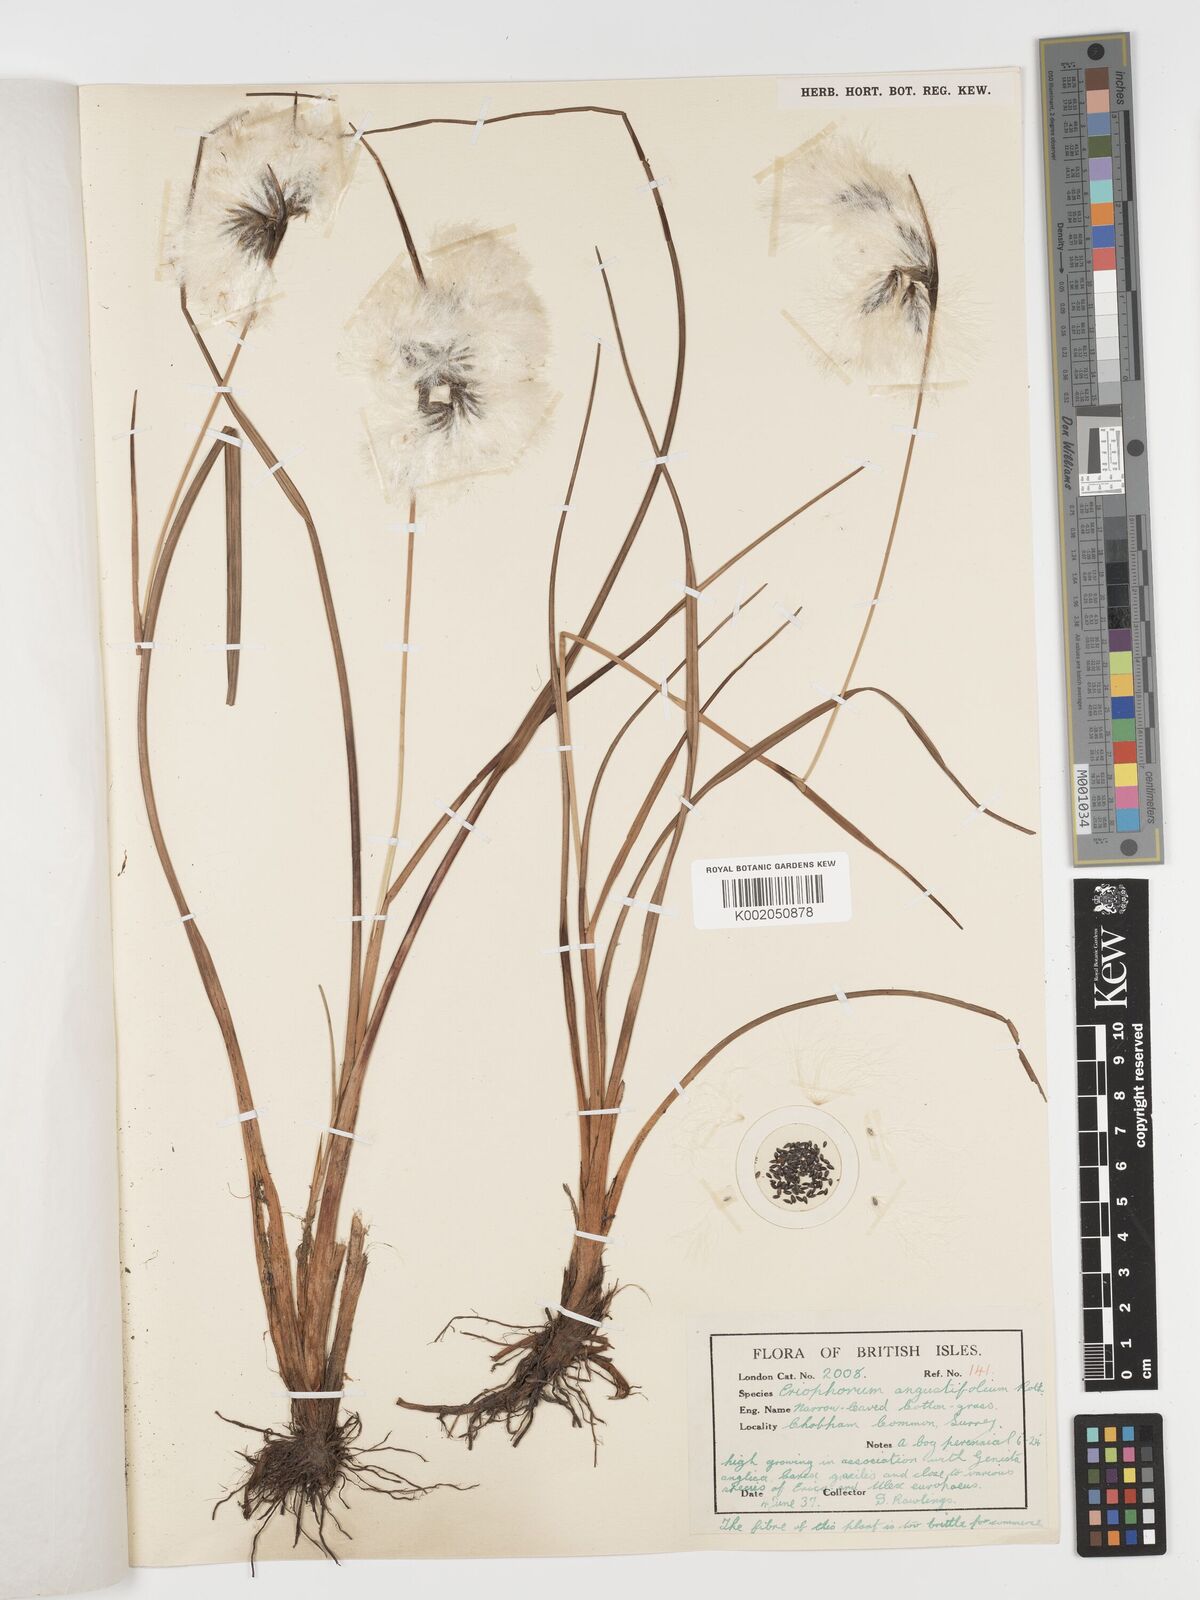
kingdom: Plantae
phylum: Tracheophyta
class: Liliopsida
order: Poales
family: Cyperaceae
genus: Eriophorum
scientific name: Eriophorum angustifolium
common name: Common cottongrass
